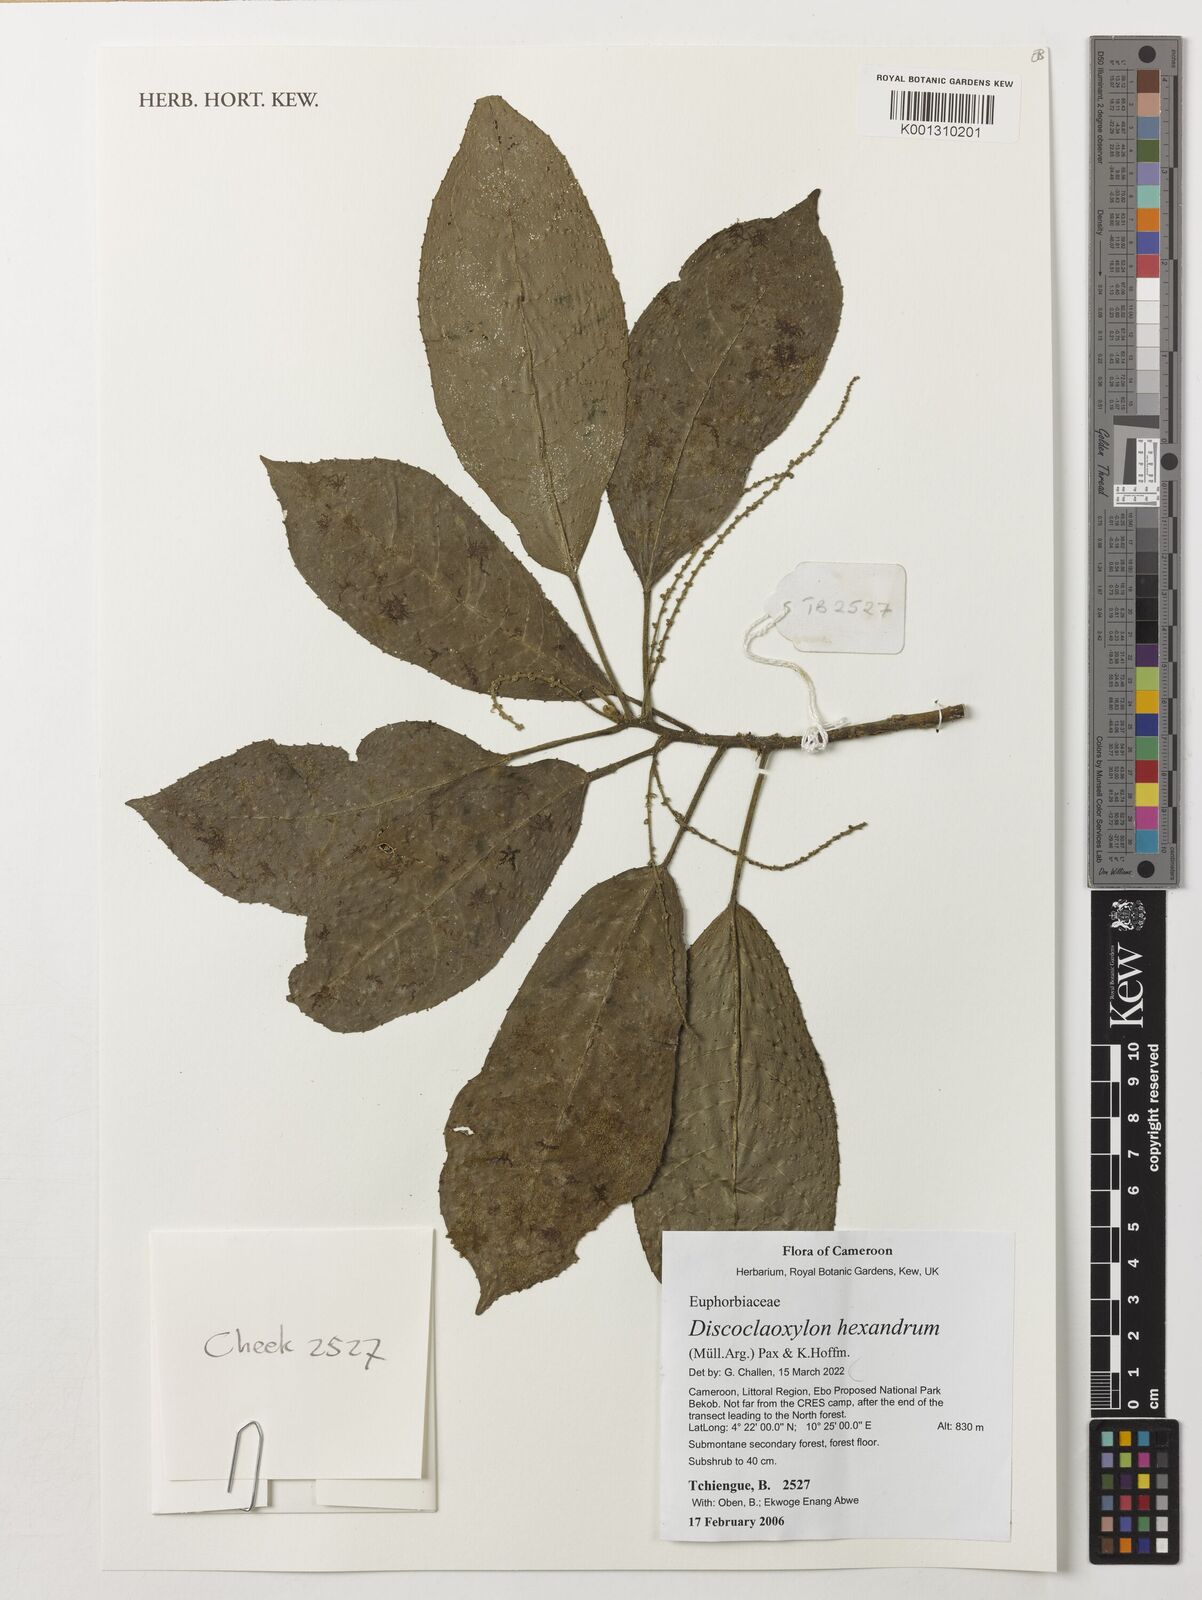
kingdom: Plantae
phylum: Tracheophyta
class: Magnoliopsida
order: Malpighiales
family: Euphorbiaceae
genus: Discoclaoxylon
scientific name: Discoclaoxylon hexandrum
